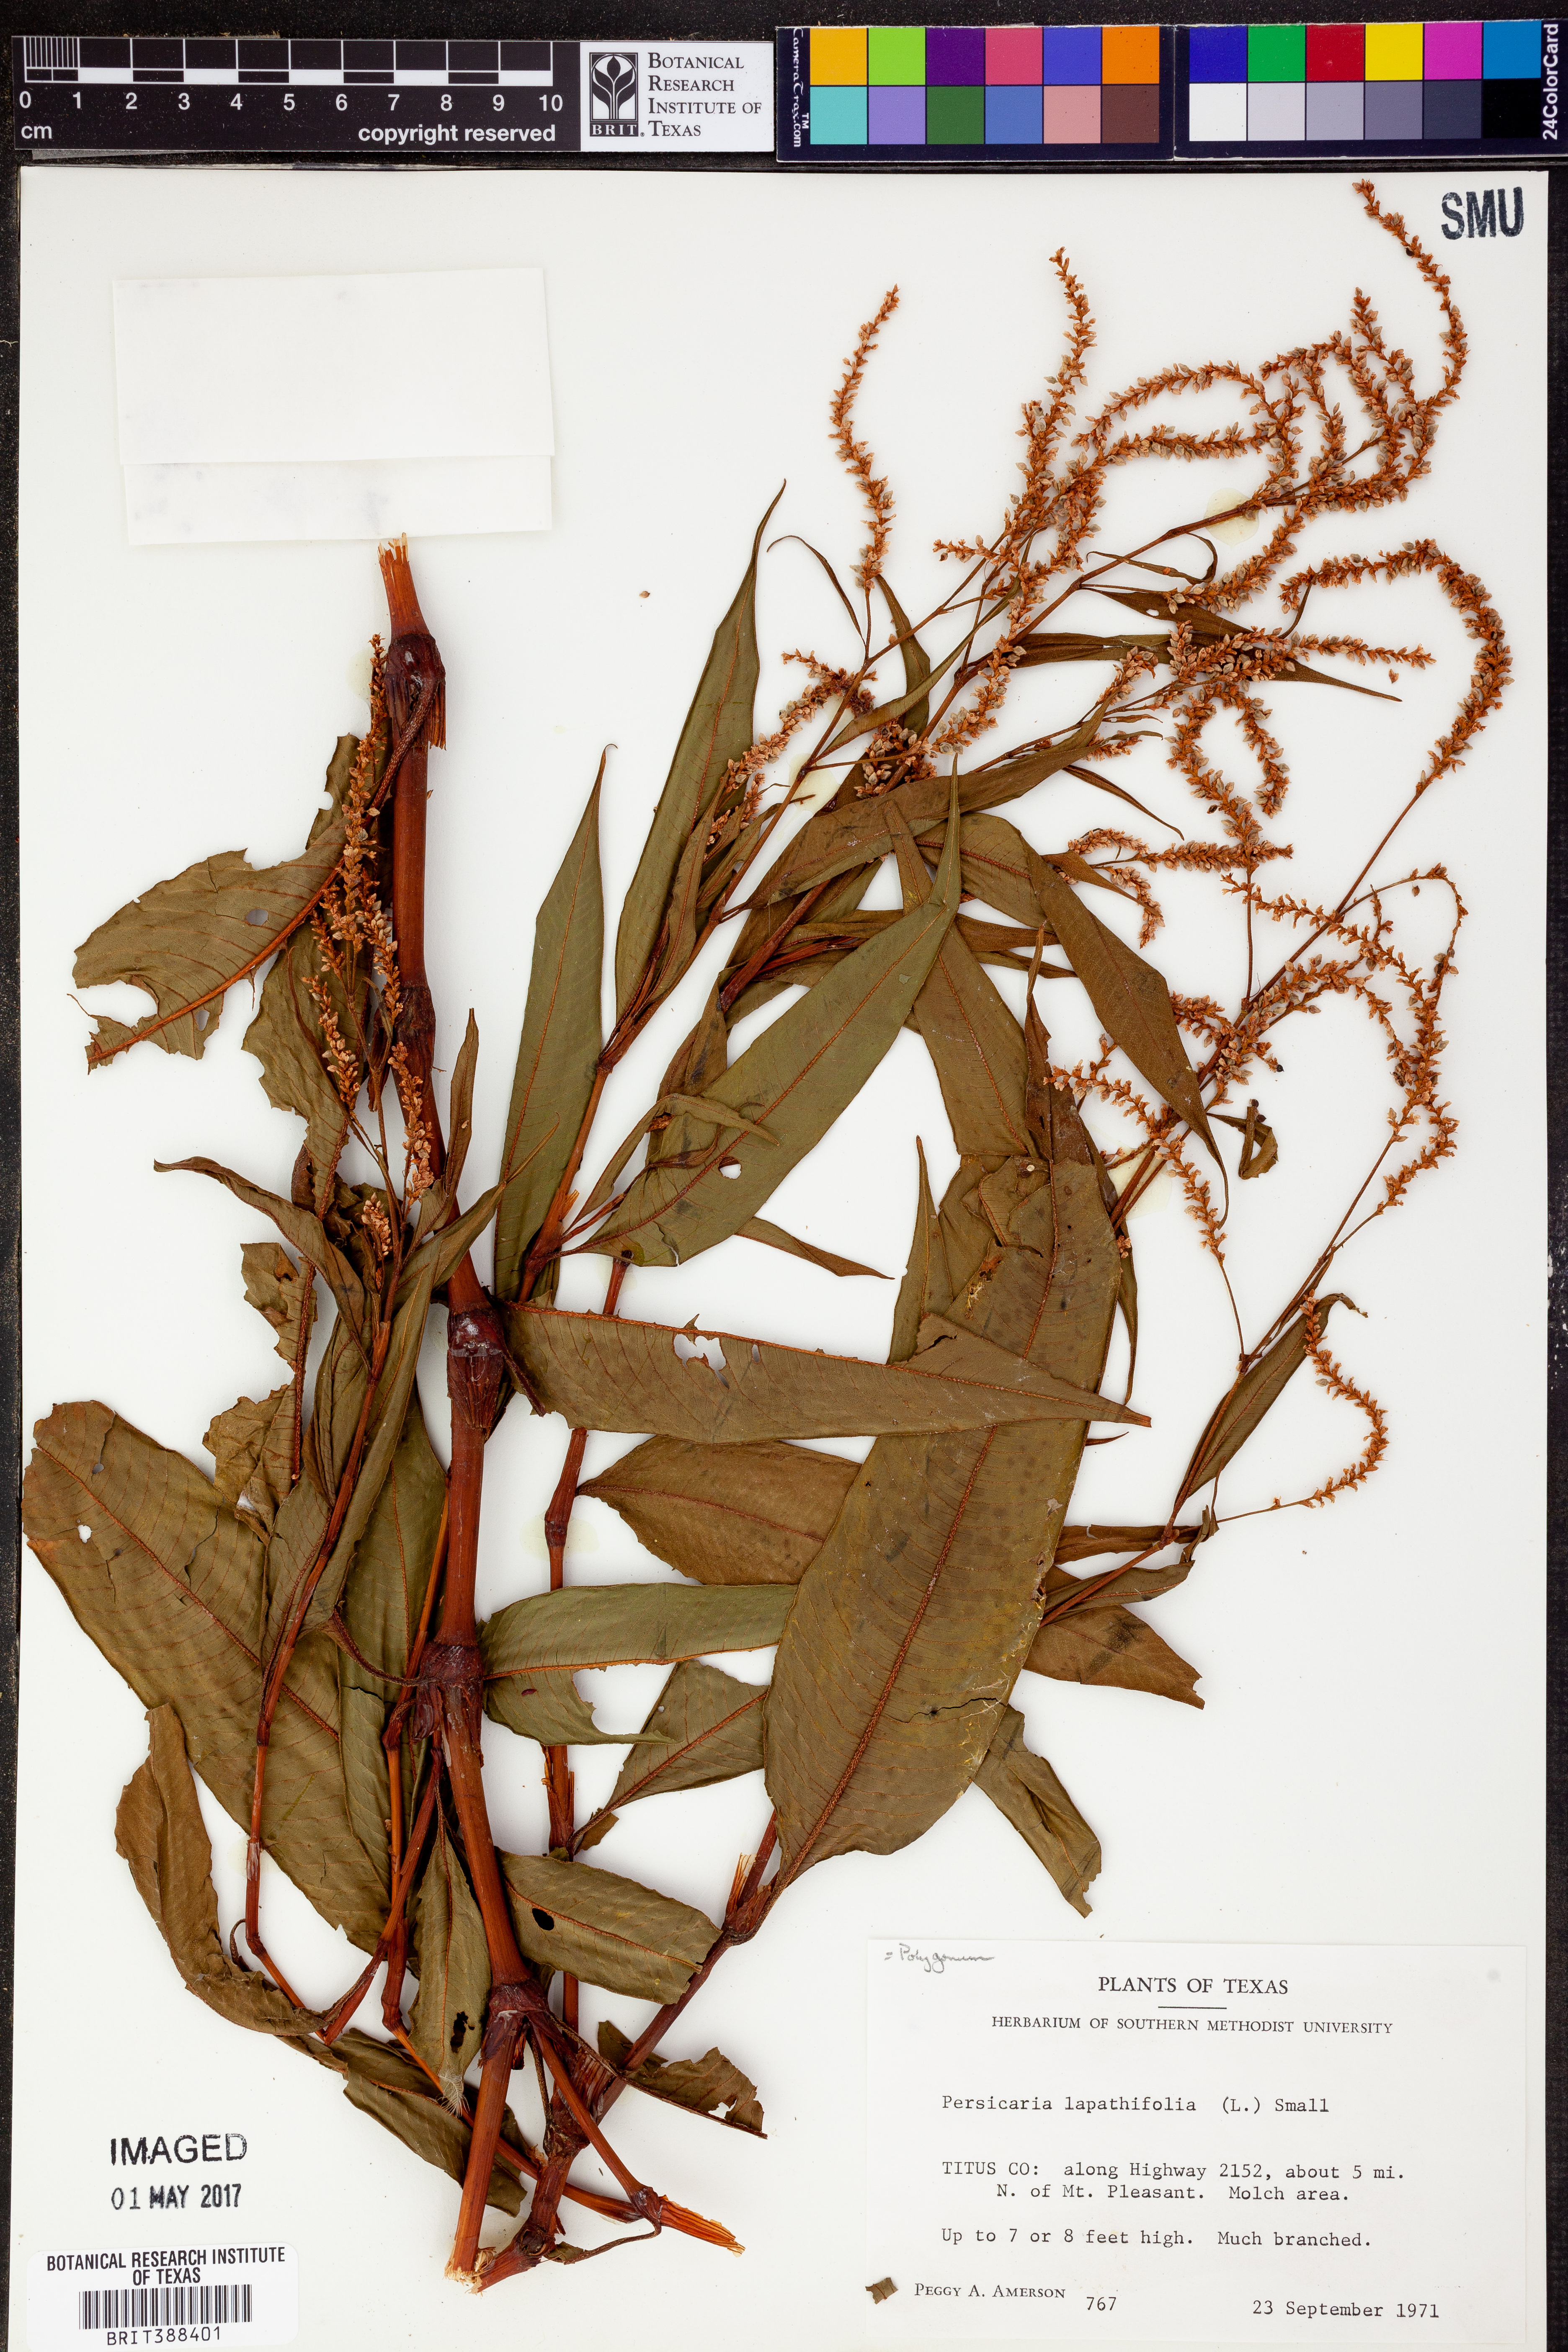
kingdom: Plantae
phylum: Tracheophyta
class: Magnoliopsida
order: Caryophyllales
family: Polygonaceae
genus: Persicaria
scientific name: Persicaria lapathifolia
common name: Curlytop knotweed
